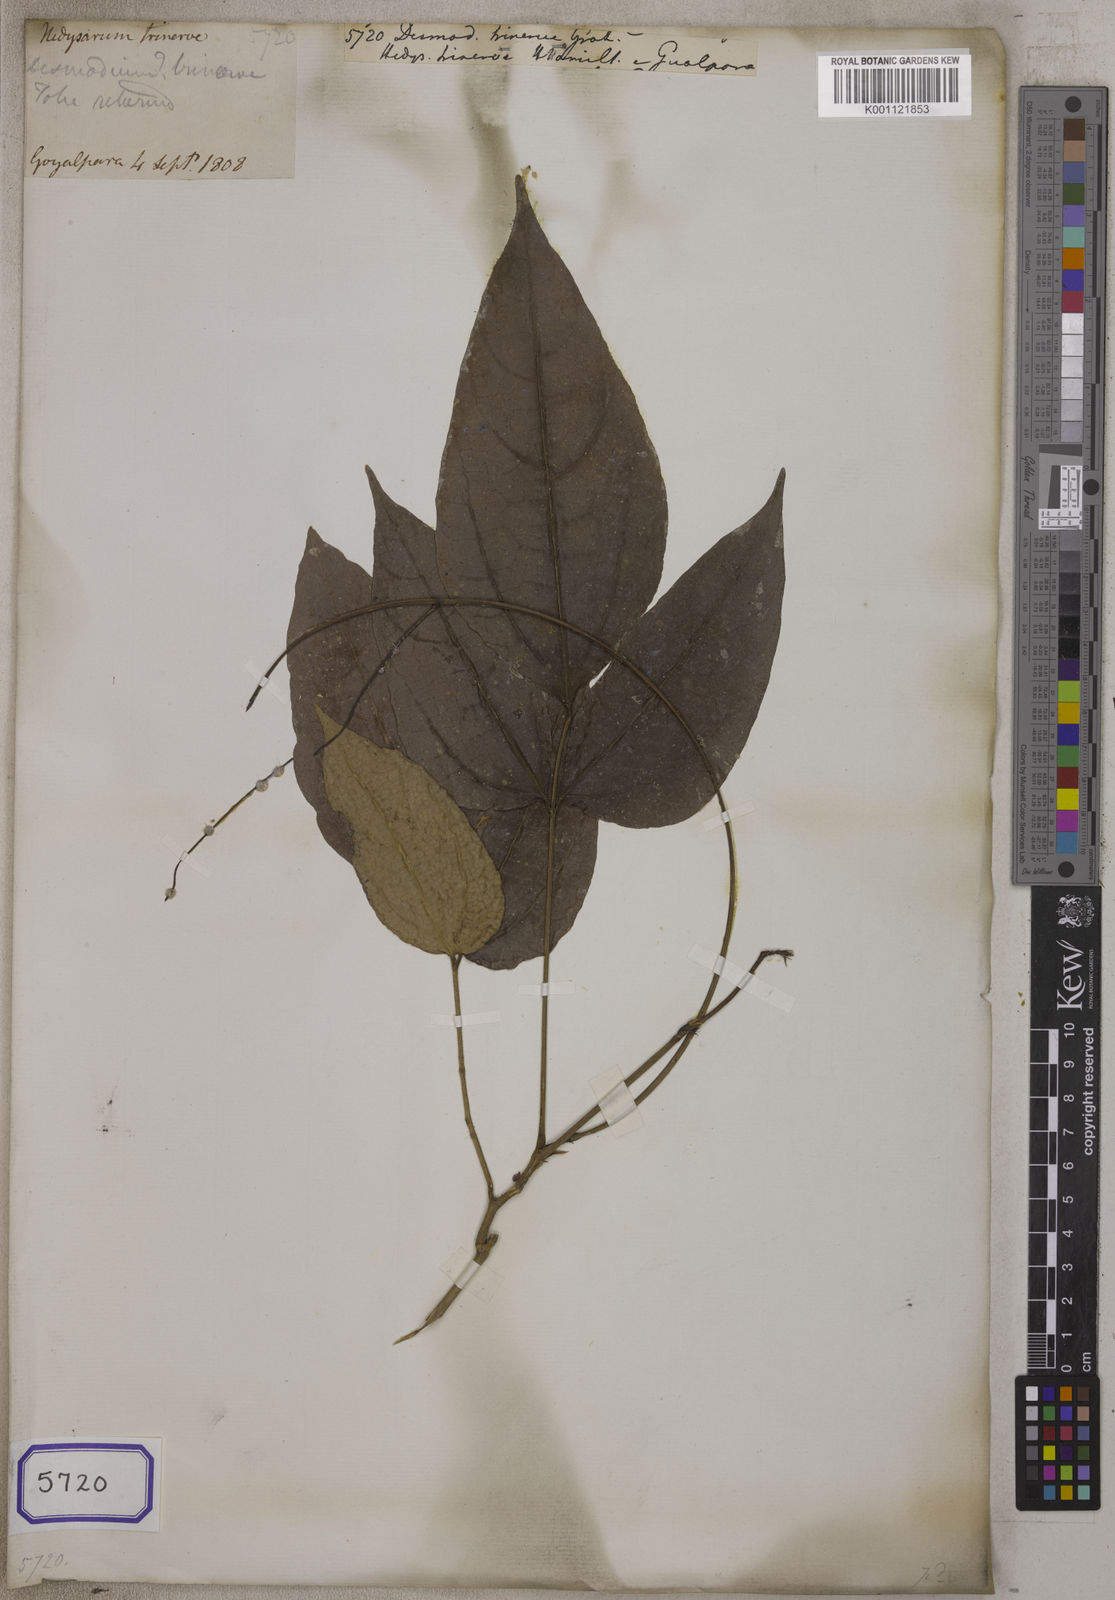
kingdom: Plantae
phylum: Tracheophyta
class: Magnoliopsida
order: Fabales
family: Fabaceae
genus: Grona
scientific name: Grona heterocarpos
